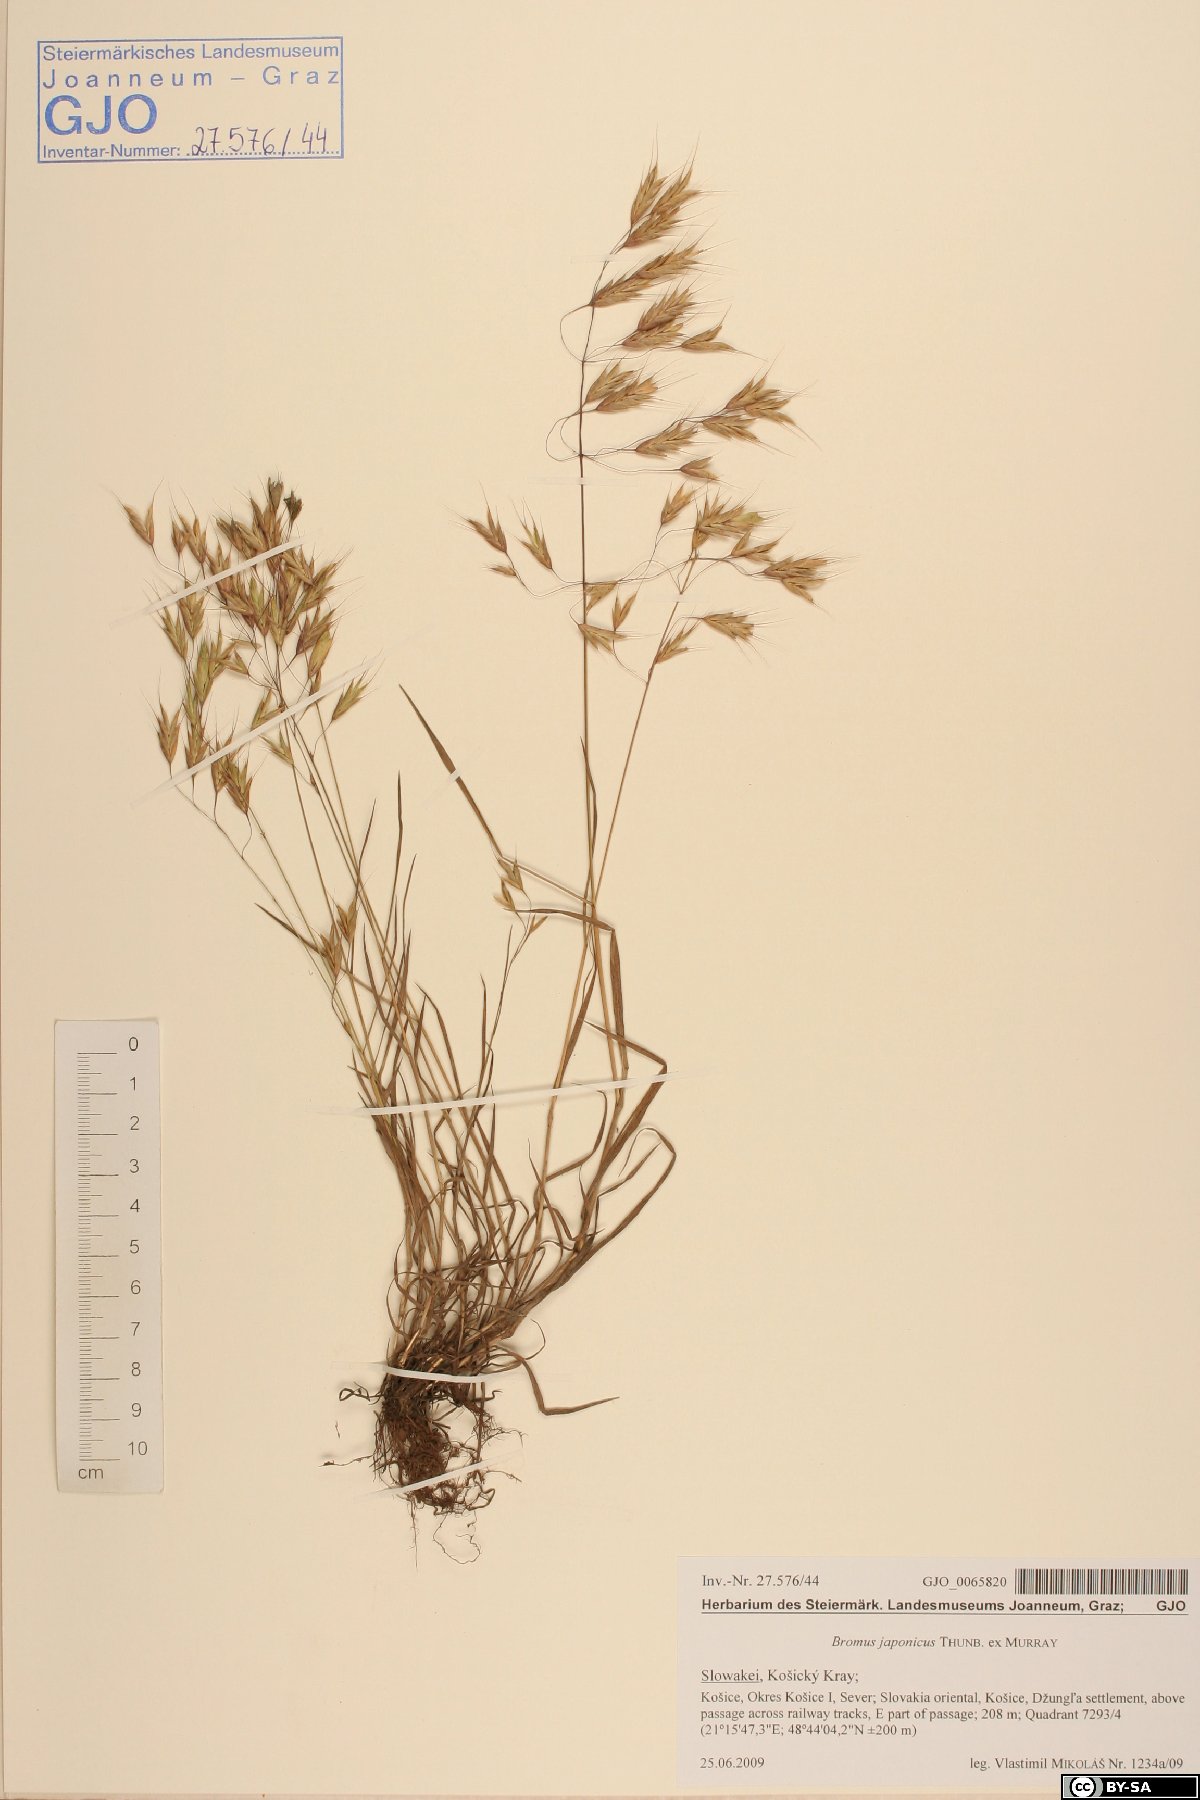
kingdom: Plantae
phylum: Tracheophyta
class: Liliopsida
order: Poales
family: Poaceae
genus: Bromus
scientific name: Bromus japonicus
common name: Japanese brome
